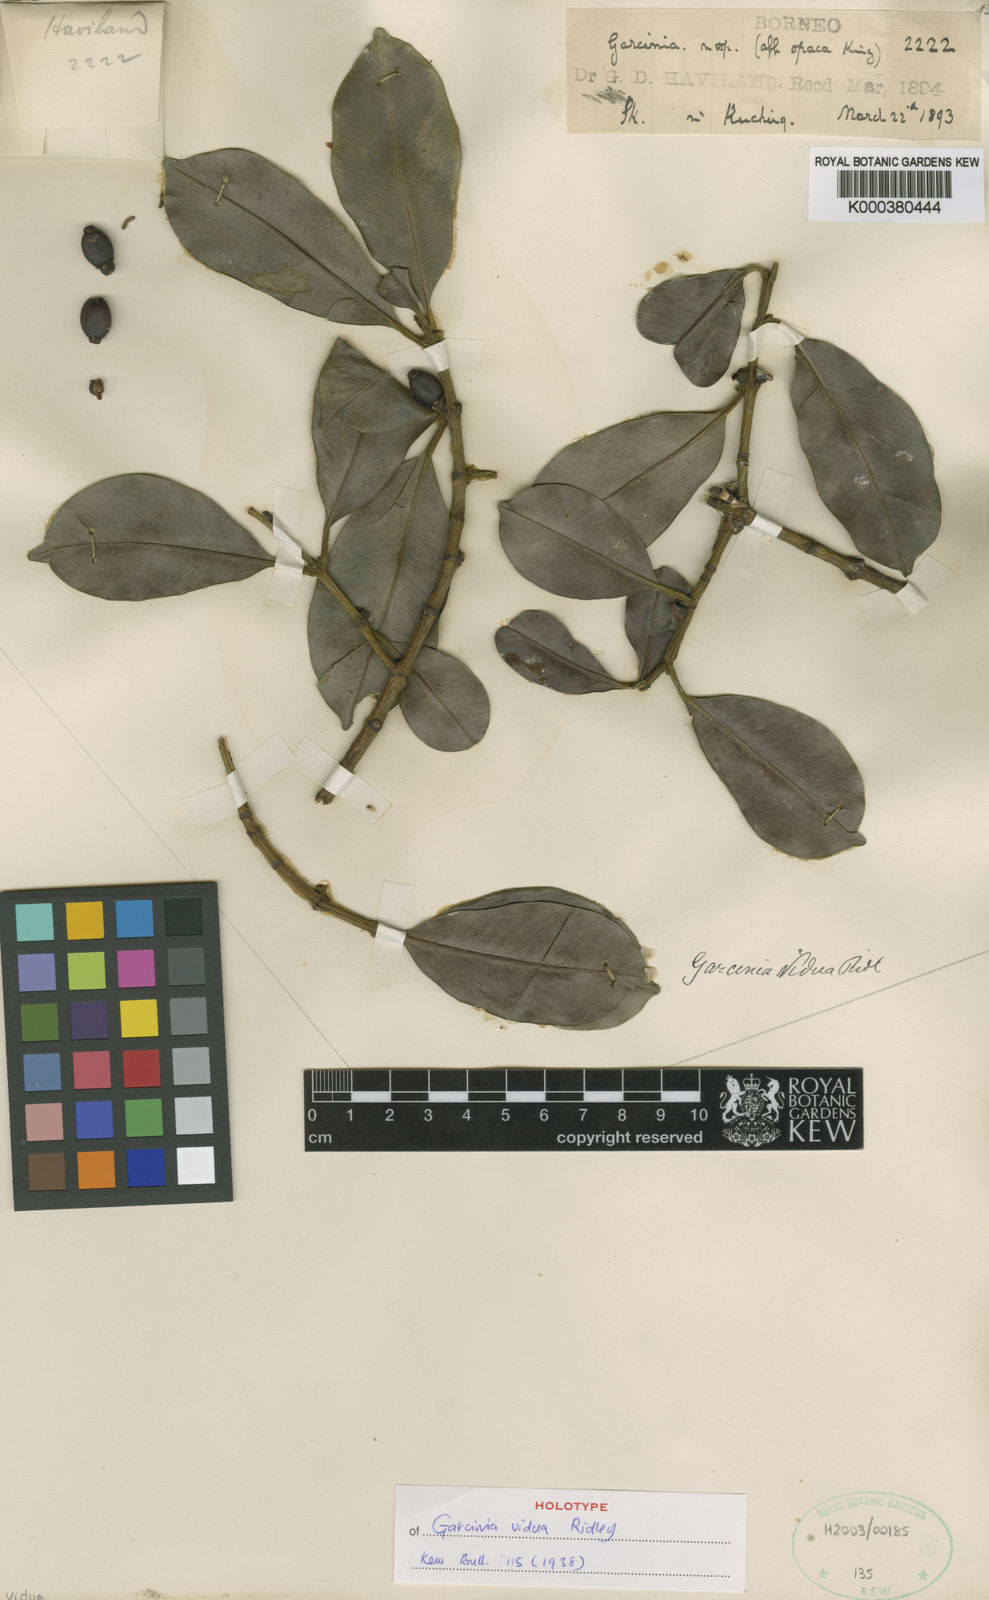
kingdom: Plantae
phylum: Tracheophyta
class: Magnoliopsida
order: Malpighiales
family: Clusiaceae
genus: Garcinia
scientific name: Garcinia vidua
